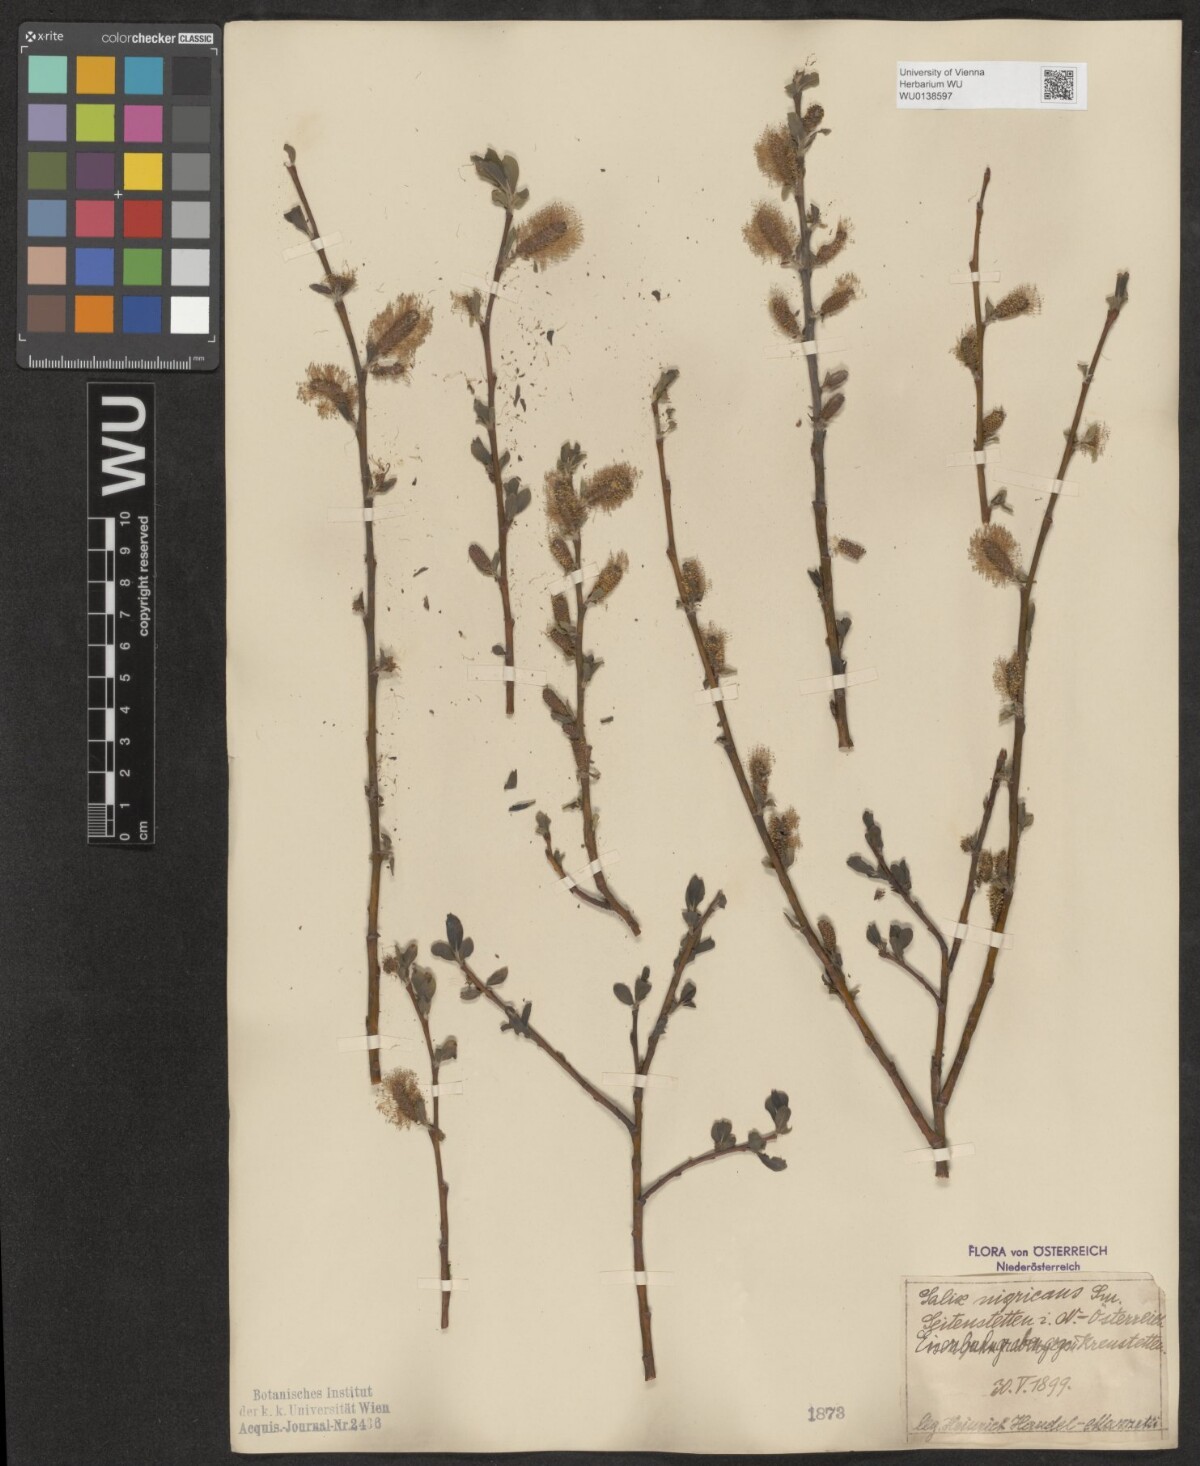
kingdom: Plantae
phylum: Tracheophyta
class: Magnoliopsida
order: Malpighiales
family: Salicaceae
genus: Salix
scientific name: Salix myrsinifolia
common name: Dark-leaved willow
